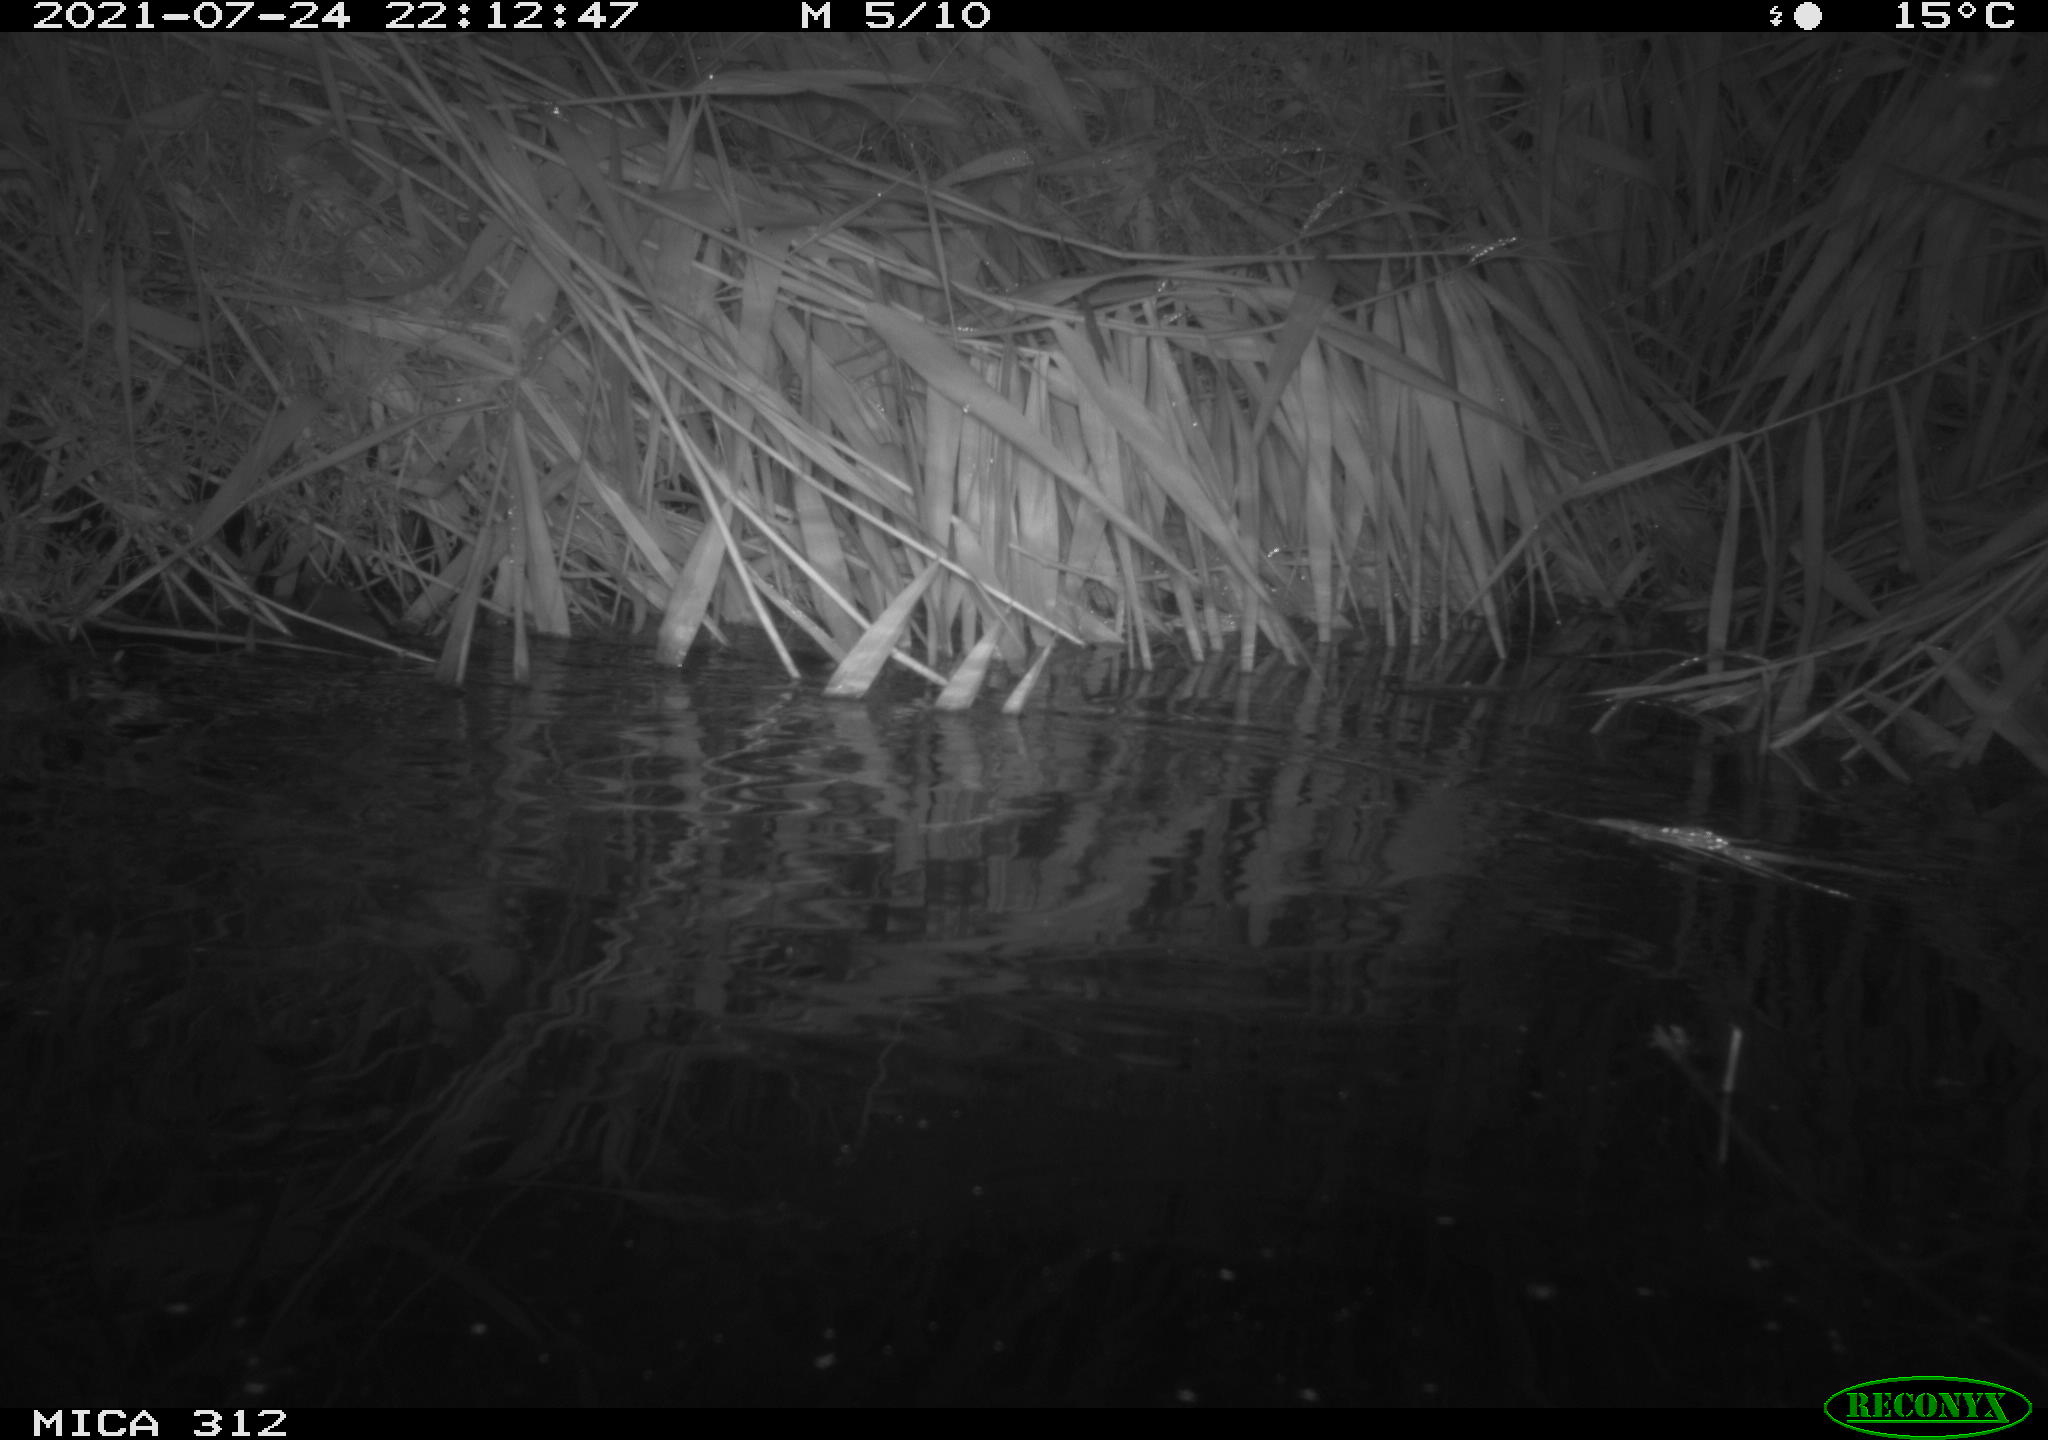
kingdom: Animalia
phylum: Chordata
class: Mammalia
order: Rodentia
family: Muridae
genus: Rattus
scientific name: Rattus norvegicus
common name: Brown rat
